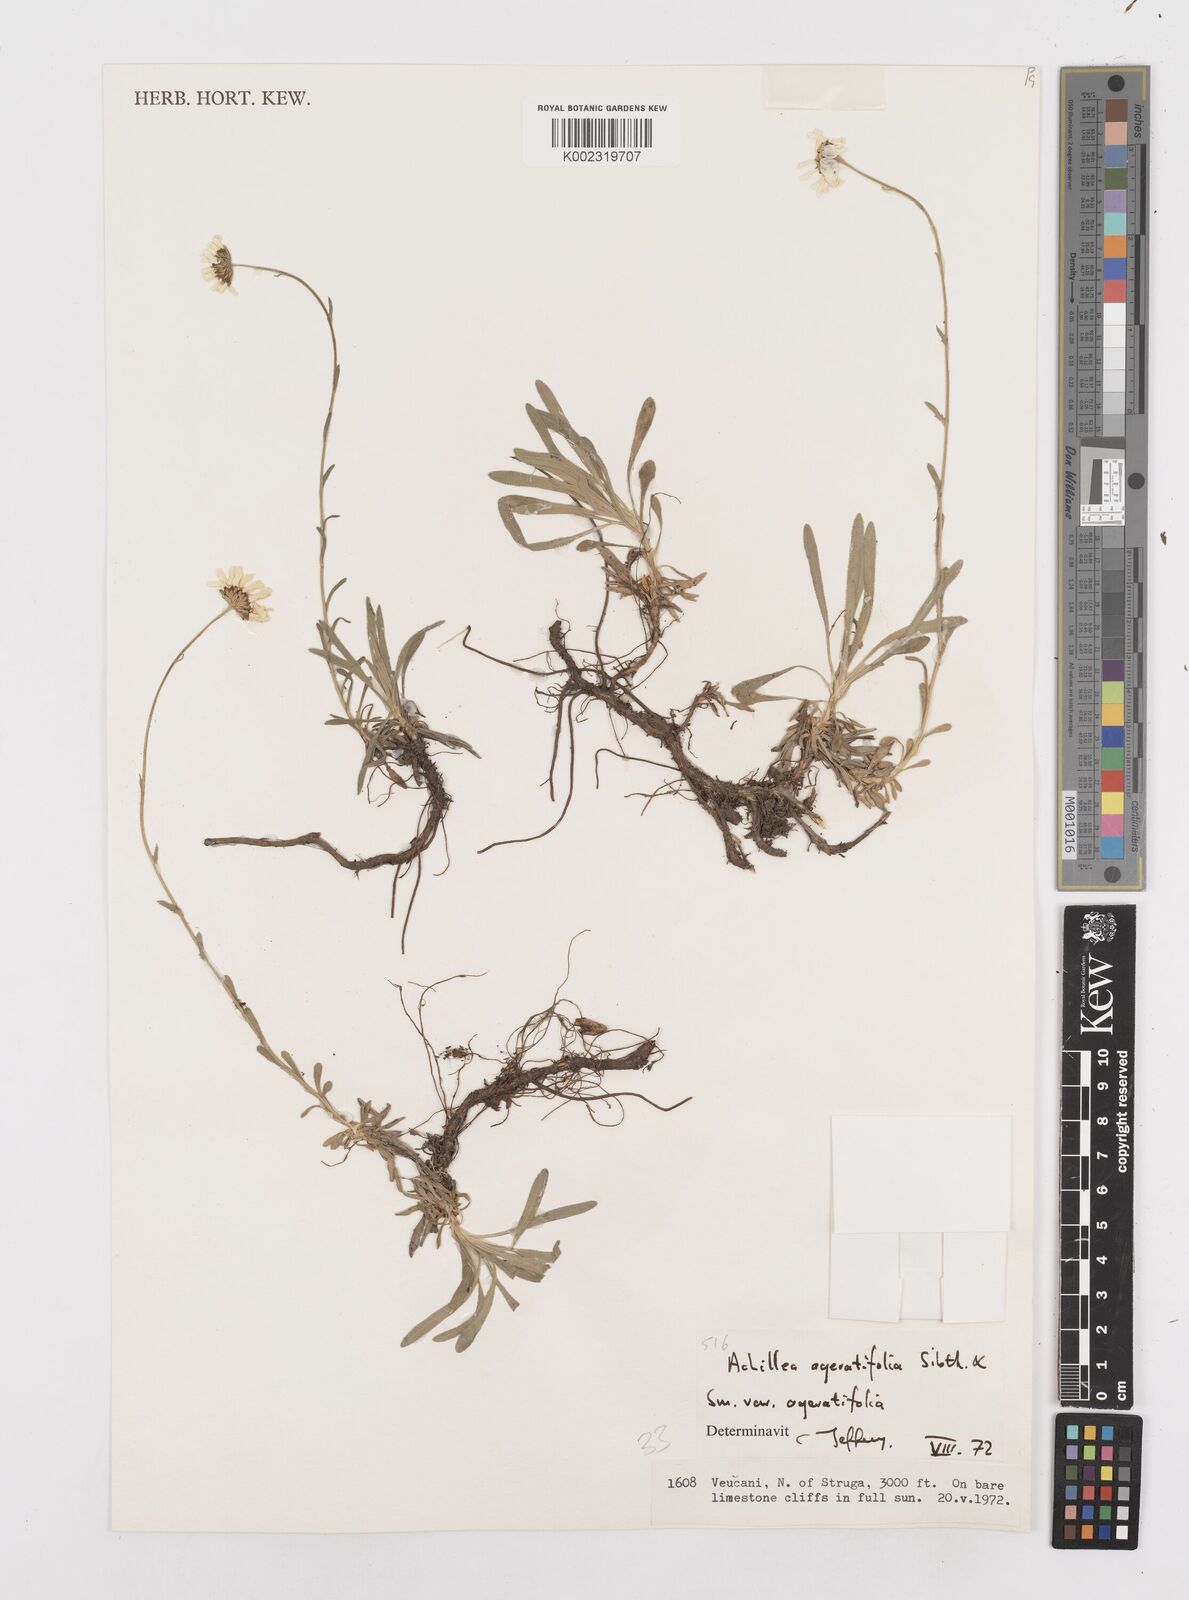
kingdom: Plantae
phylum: Tracheophyta
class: Magnoliopsida
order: Asterales
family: Asteraceae
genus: Achillea
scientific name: Achillea ageratifolia
